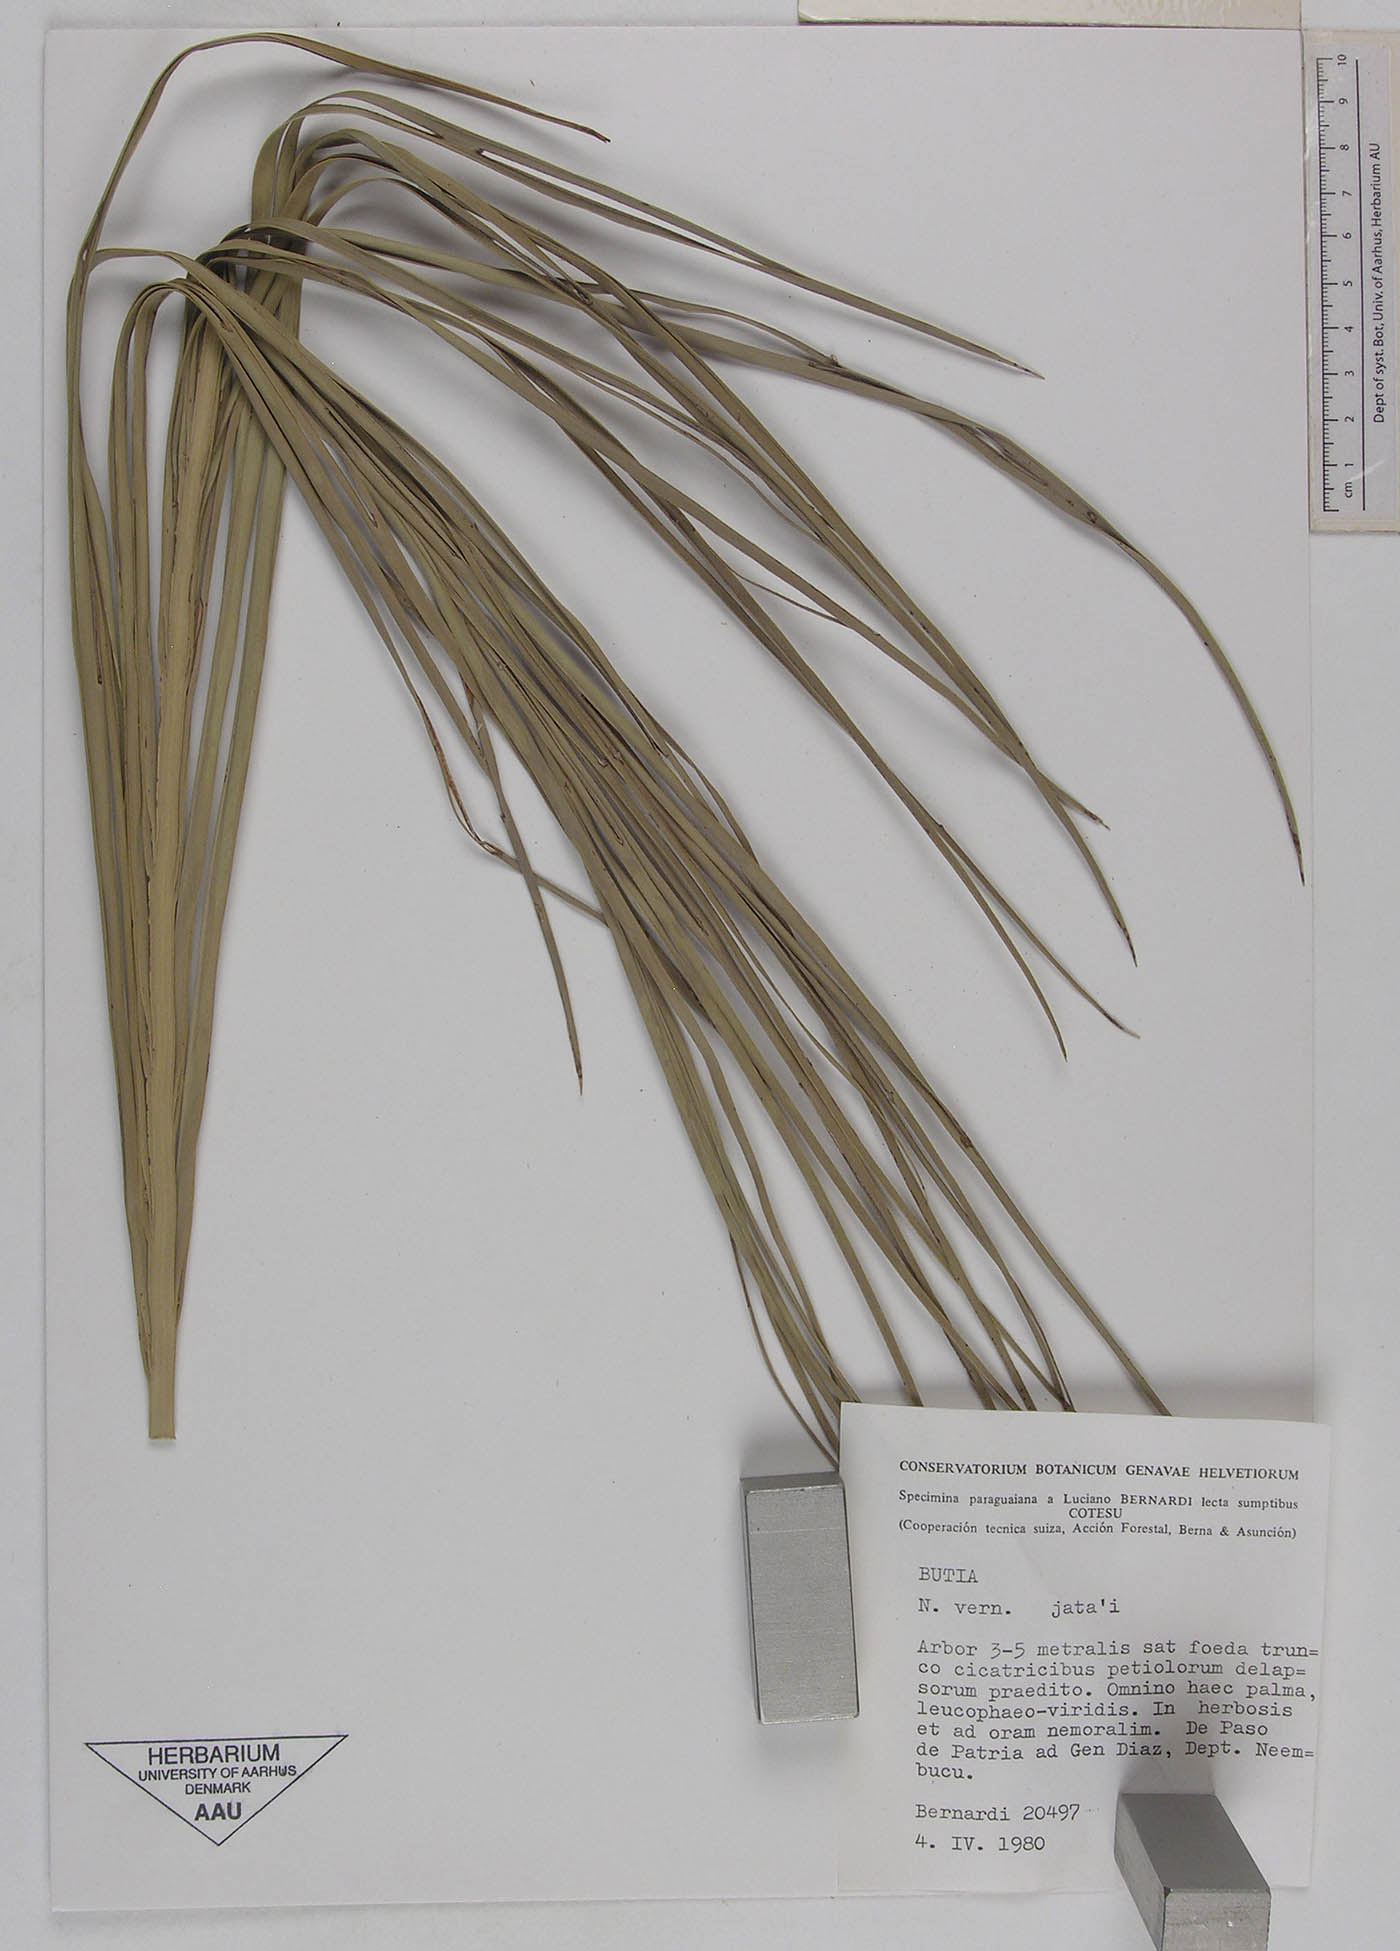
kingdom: Plantae
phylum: Tracheophyta
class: Liliopsida
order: Arecales
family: Arecaceae
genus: Butia
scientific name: Butia
